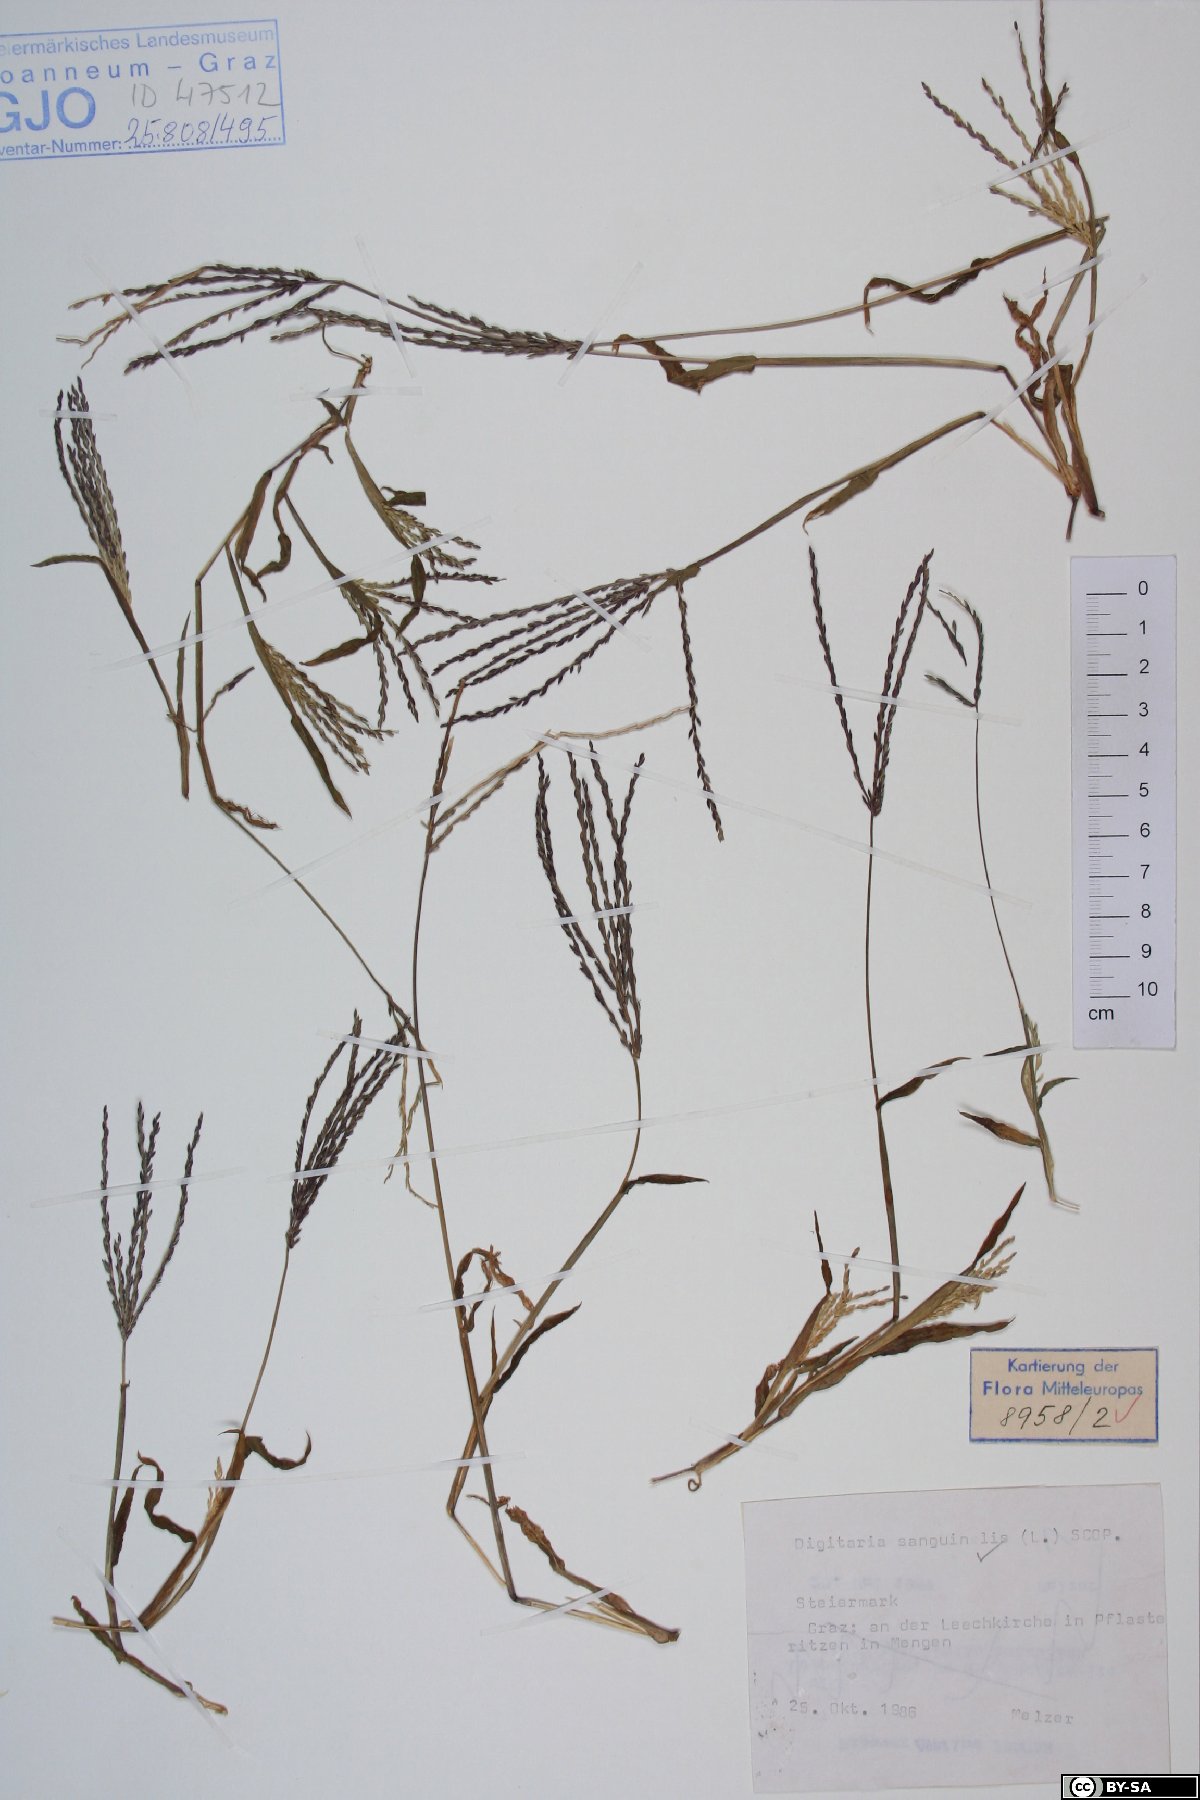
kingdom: Plantae
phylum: Tracheophyta
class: Liliopsida
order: Poales
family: Poaceae
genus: Digitaria
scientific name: Digitaria sanguinalis
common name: Hairy crabgrass
